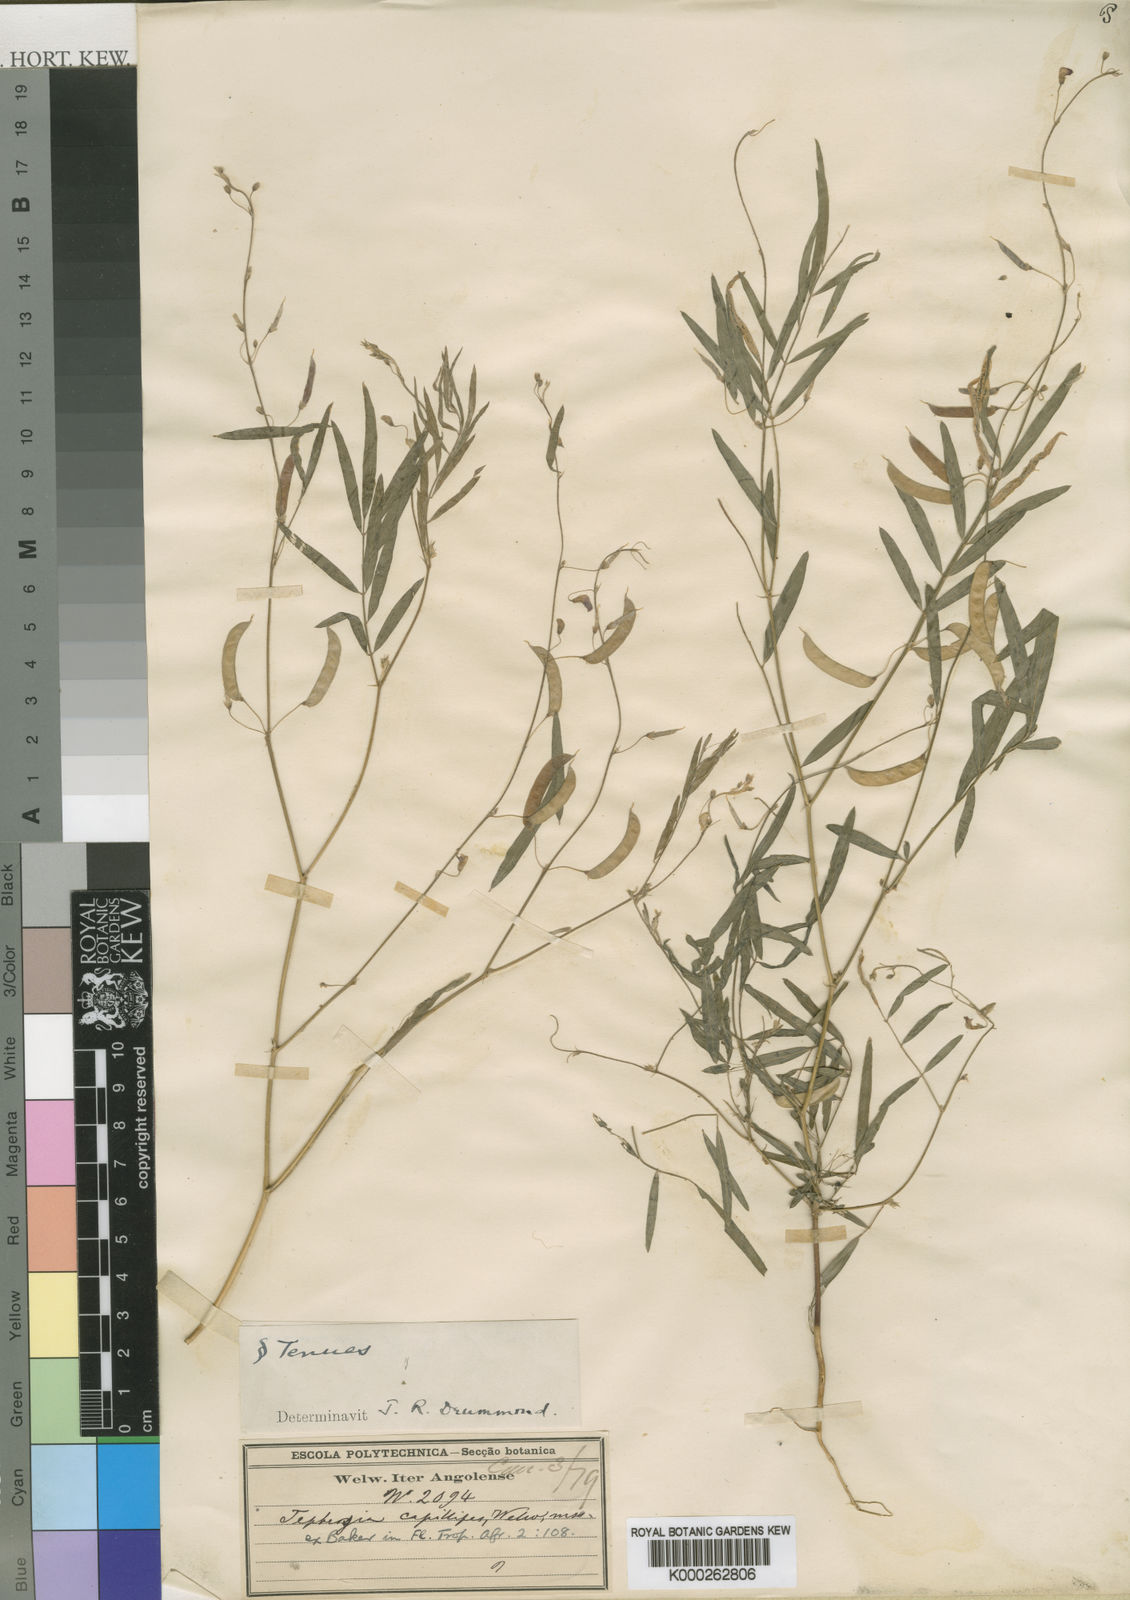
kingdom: Plantae
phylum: Tracheophyta
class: Magnoliopsida
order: Fabales
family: Fabaceae
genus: Tephrosia
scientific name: Tephrosia dregeana
